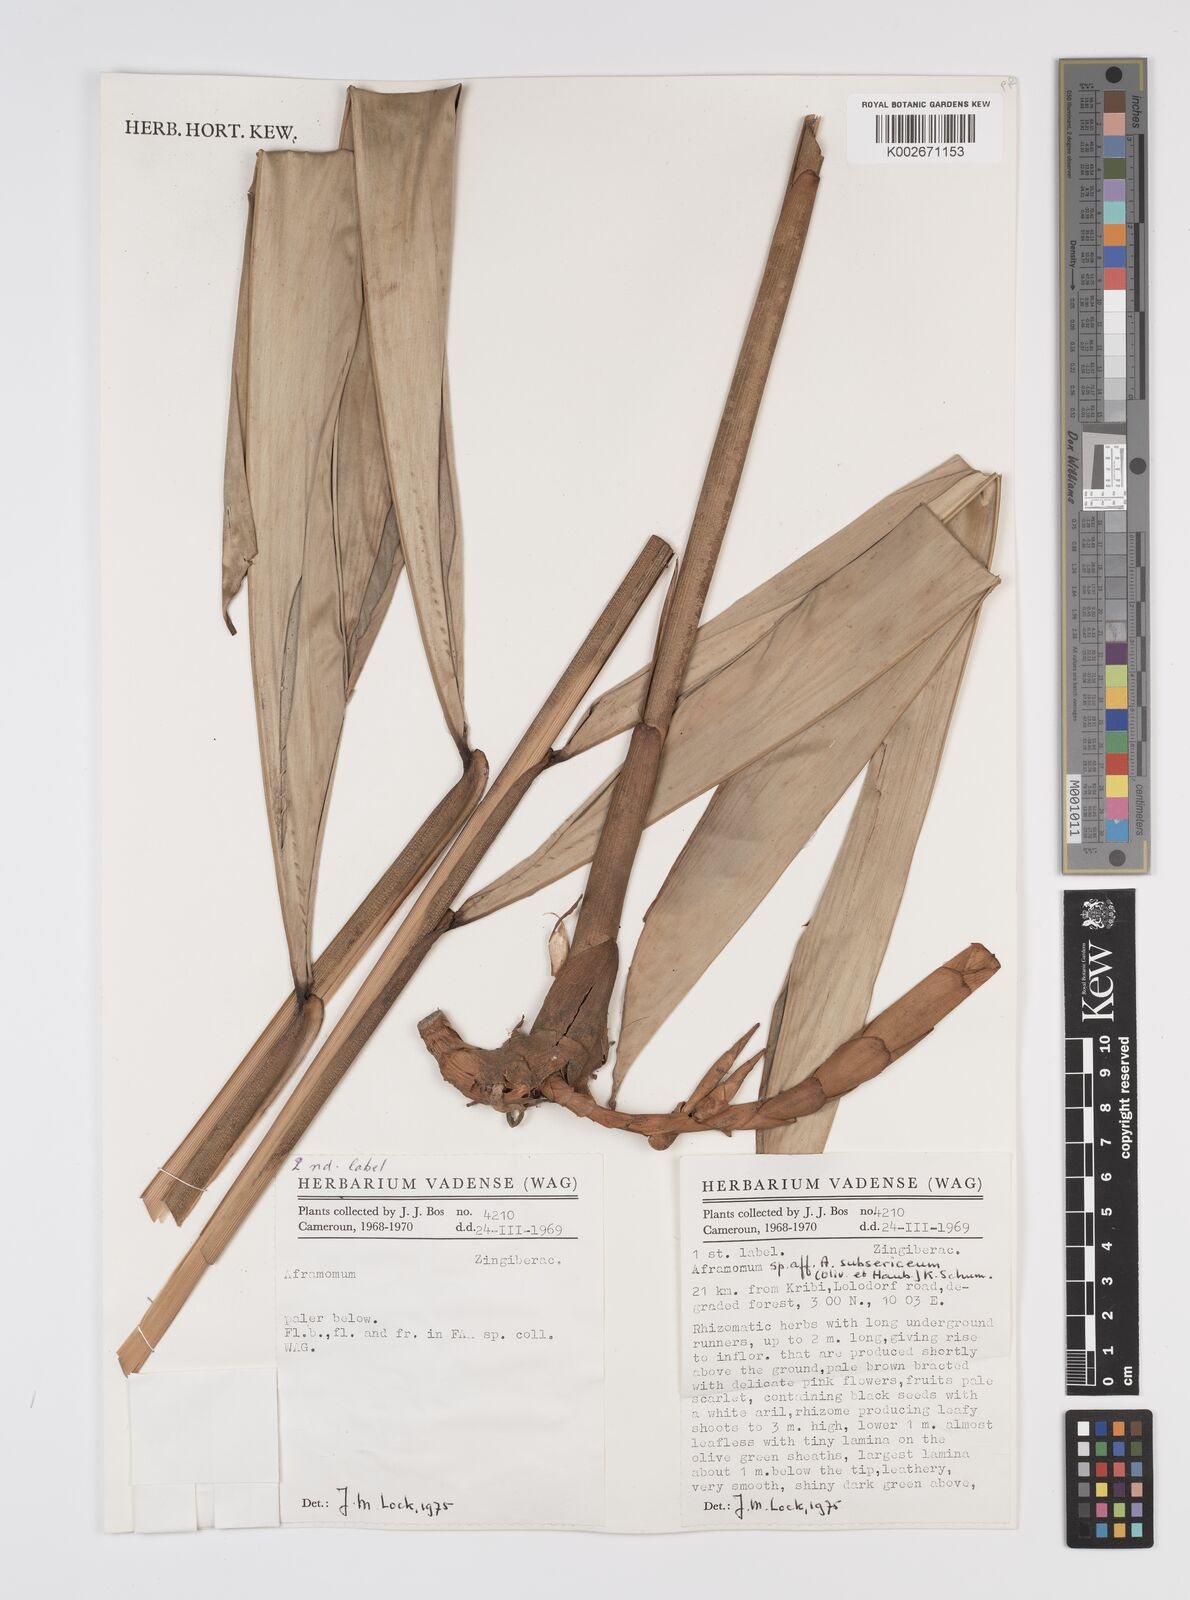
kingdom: Plantae
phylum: Tracheophyta
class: Liliopsida
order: Zingiberales
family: Zingiberaceae
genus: Aframomum
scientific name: Aframomum subsericeum
